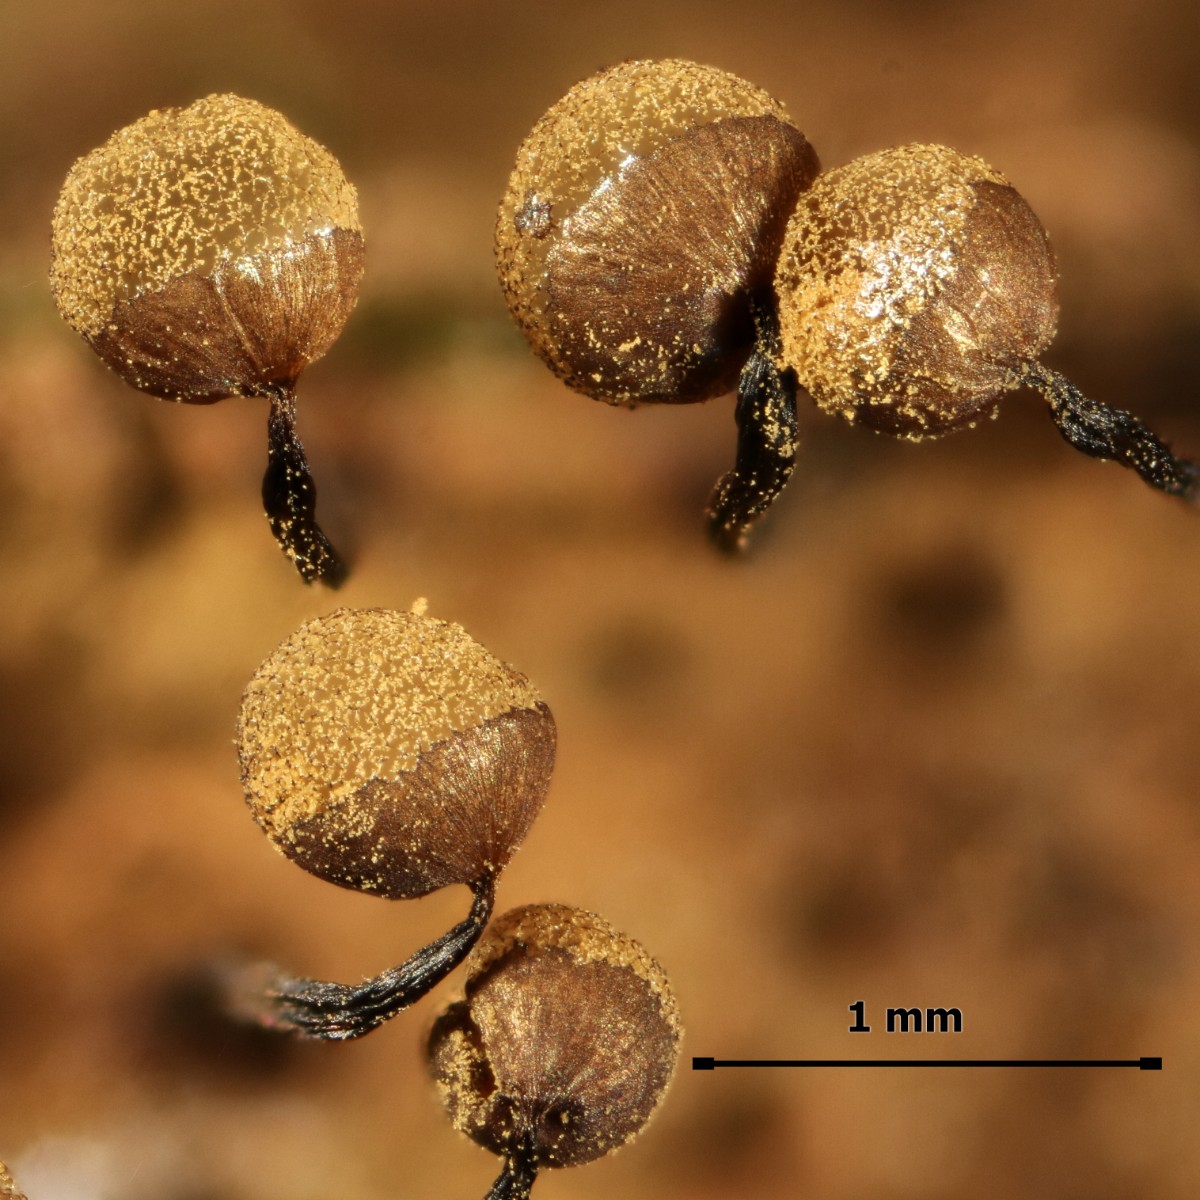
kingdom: Protozoa
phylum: Mycetozoa
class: Myxomycetes
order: Cribrariales
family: Cribrariaceae
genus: Cribraria
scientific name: Cribraria persoonii
